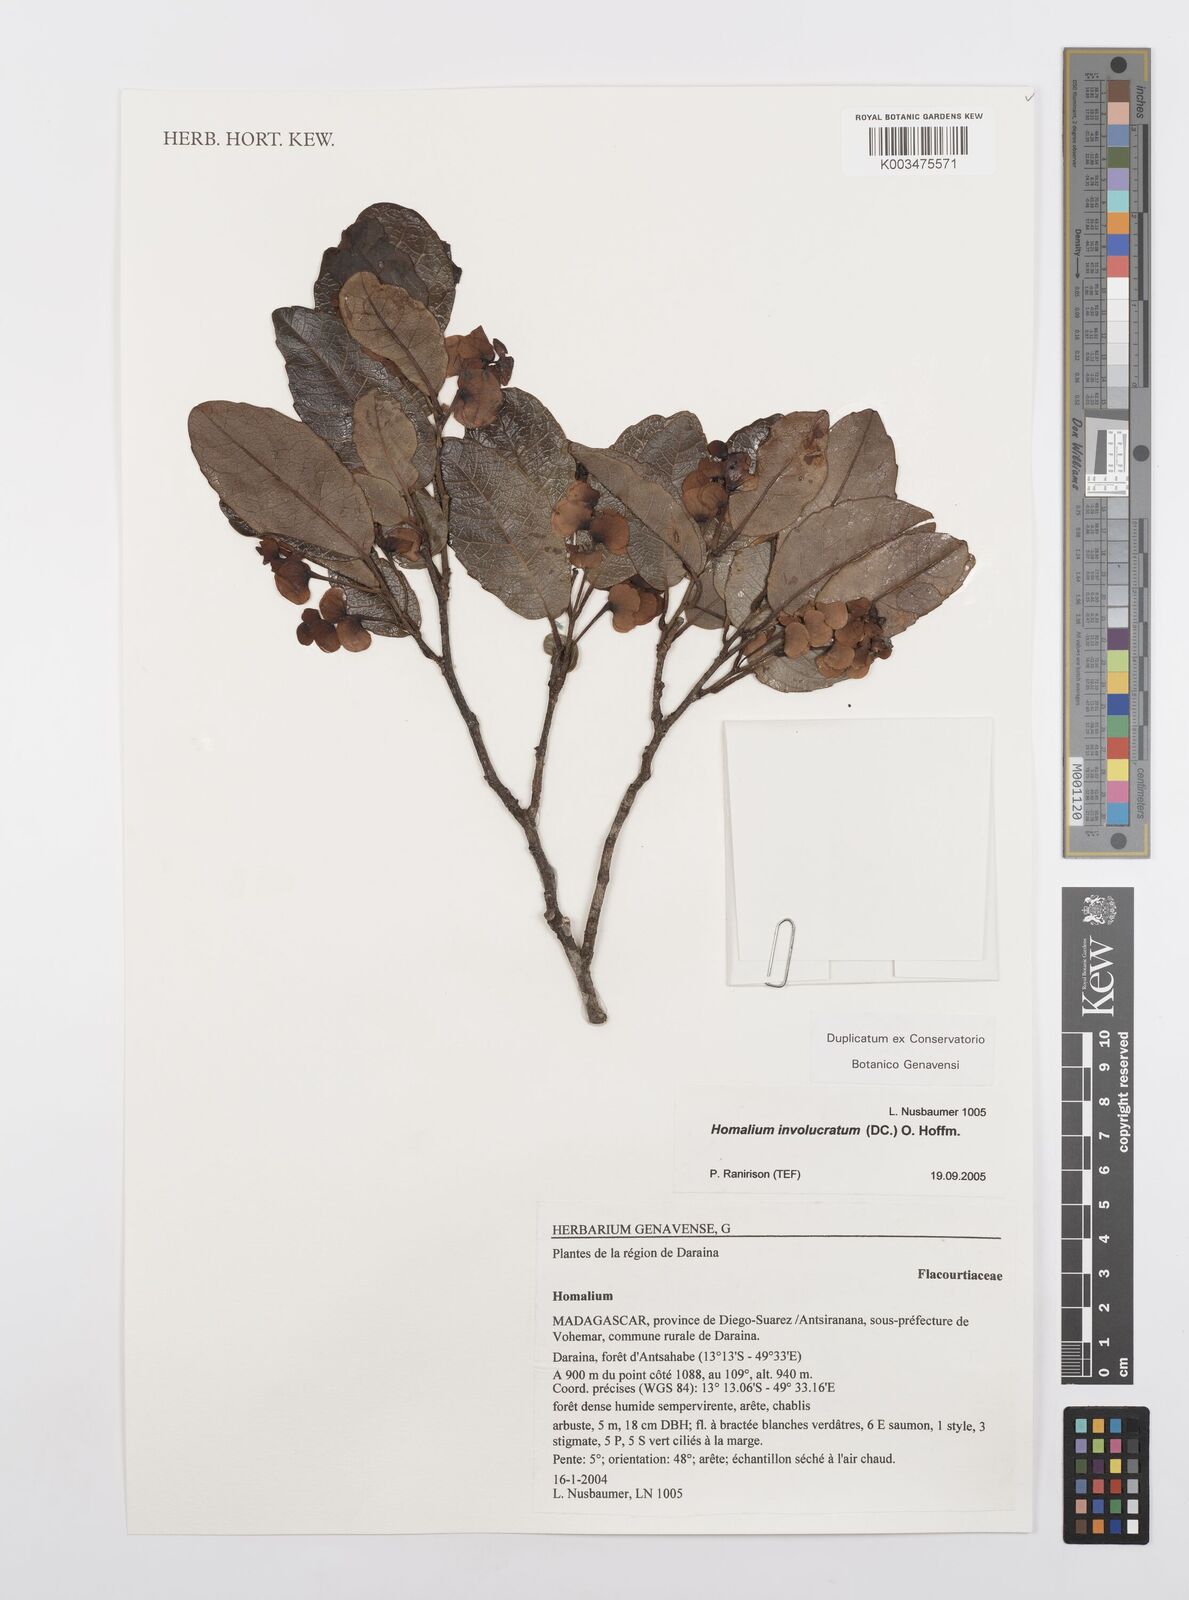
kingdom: Plantae
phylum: Tracheophyta
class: Magnoliopsida
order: Malpighiales
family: Salicaceae
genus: Homalium
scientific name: Homalium involucratum
